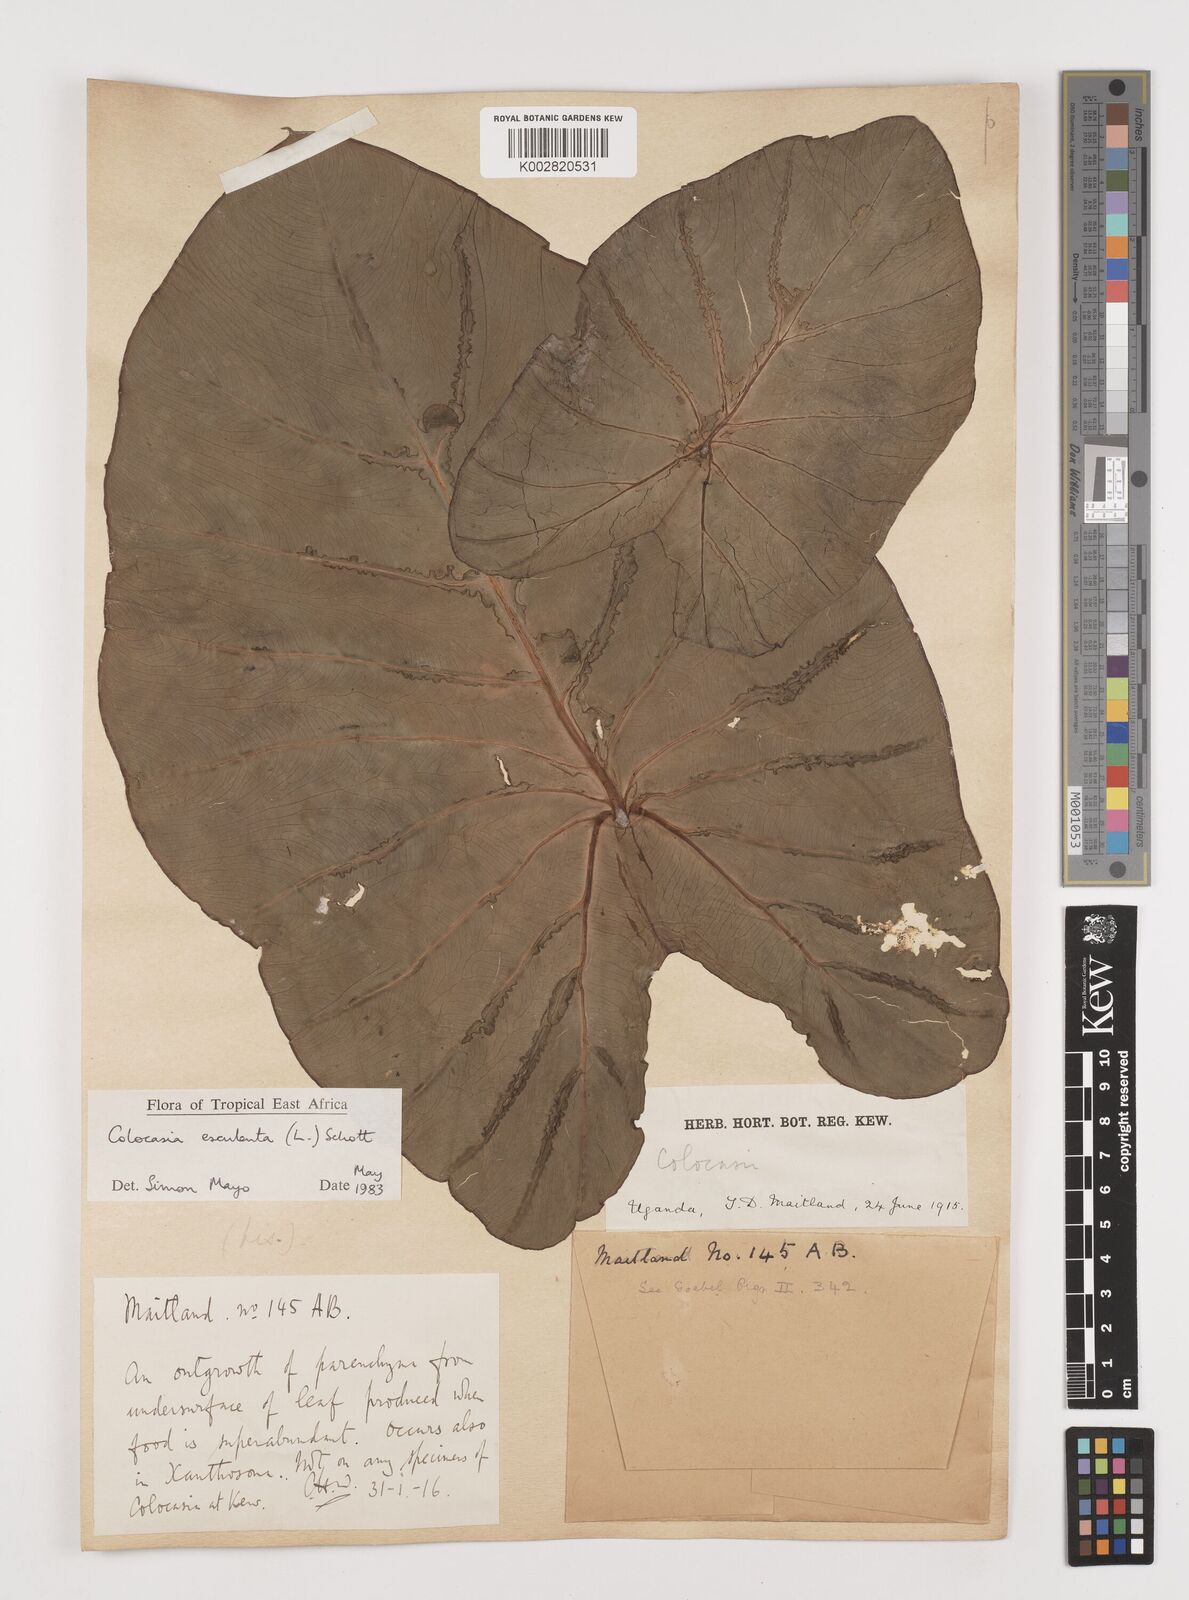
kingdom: Plantae
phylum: Tracheophyta
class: Liliopsida
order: Alismatales
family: Araceae
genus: Colocasia
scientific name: Colocasia esculenta
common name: Taro
